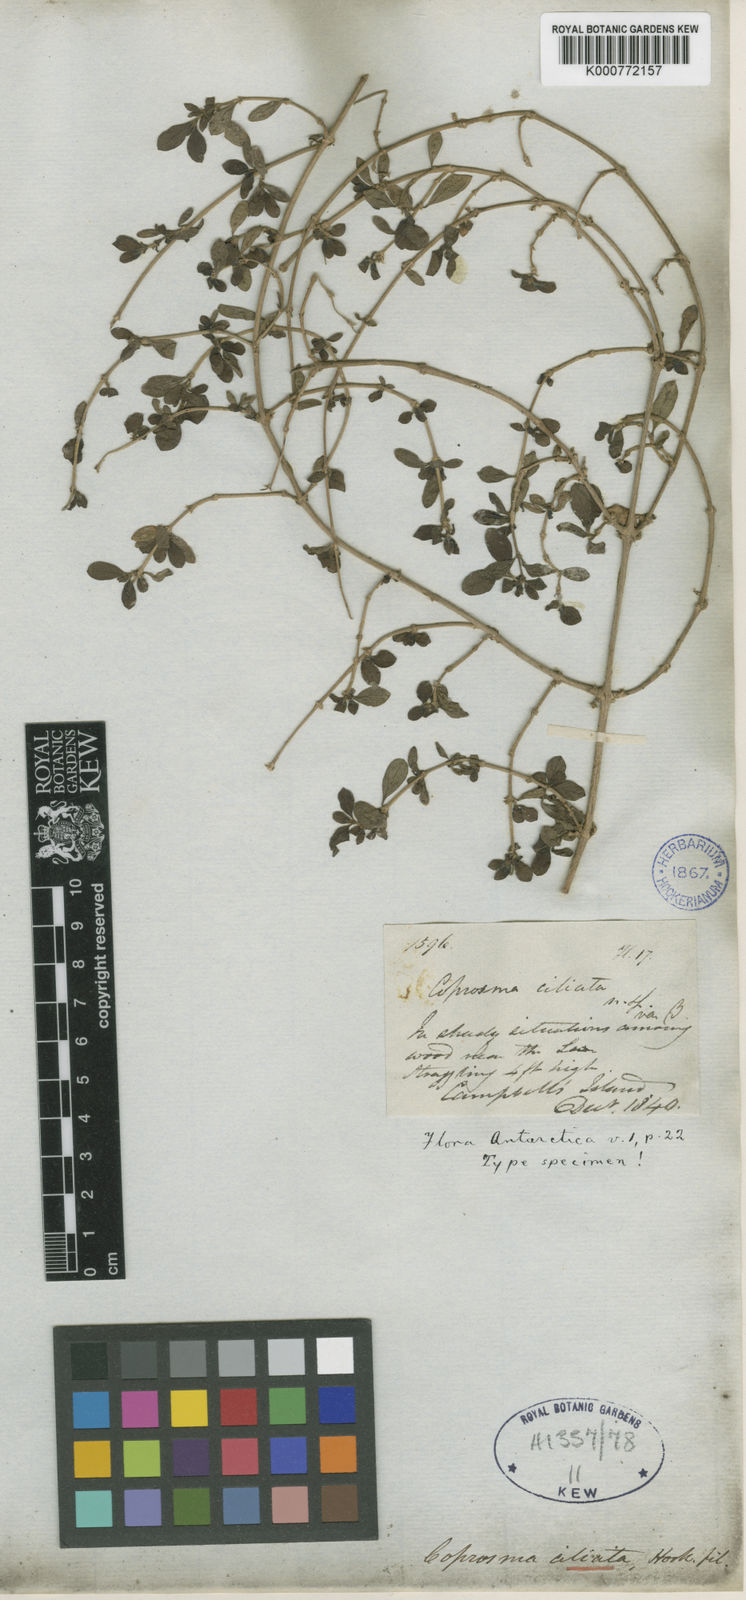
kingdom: Plantae
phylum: Tracheophyta
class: Magnoliopsida
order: Gentianales
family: Rubiaceae
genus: Coprosma
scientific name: Coprosma ciliata
